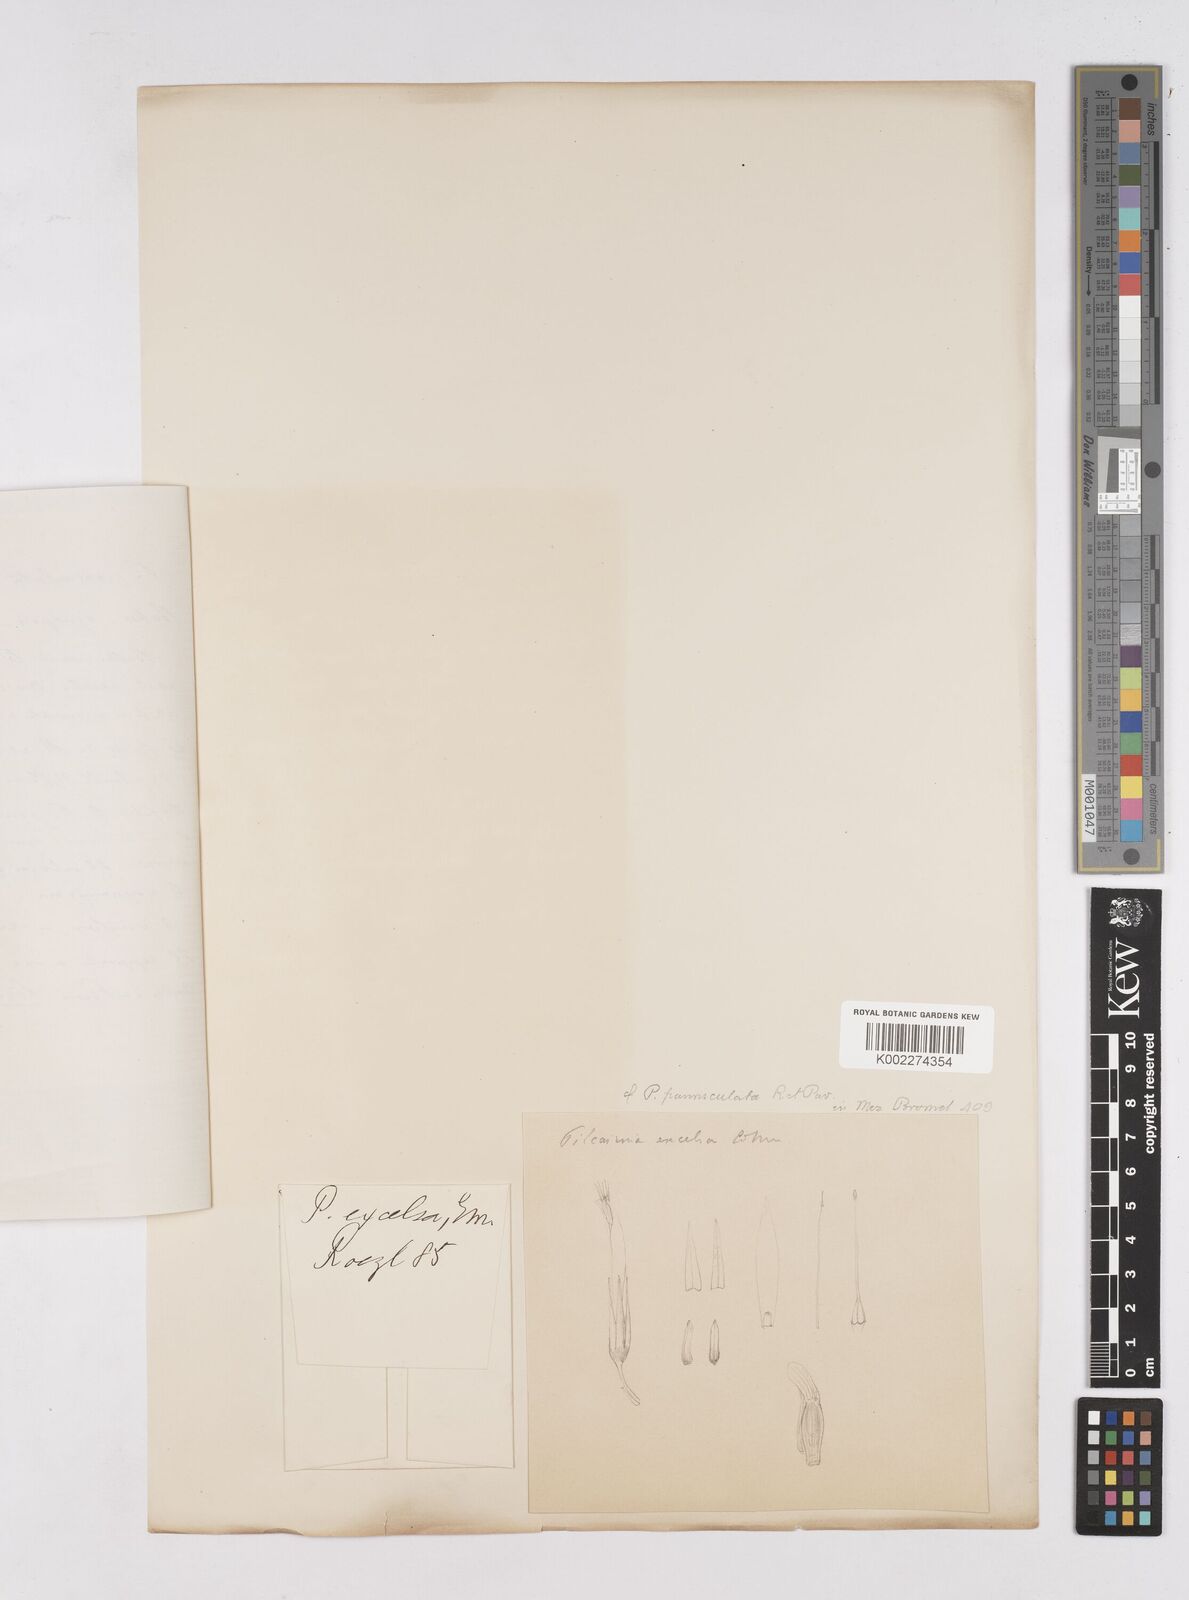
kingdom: Plantae
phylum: Tracheophyta
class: Liliopsida
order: Poales
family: Bromeliaceae
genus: Pitcairnia
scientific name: Pitcairnia paniculata
